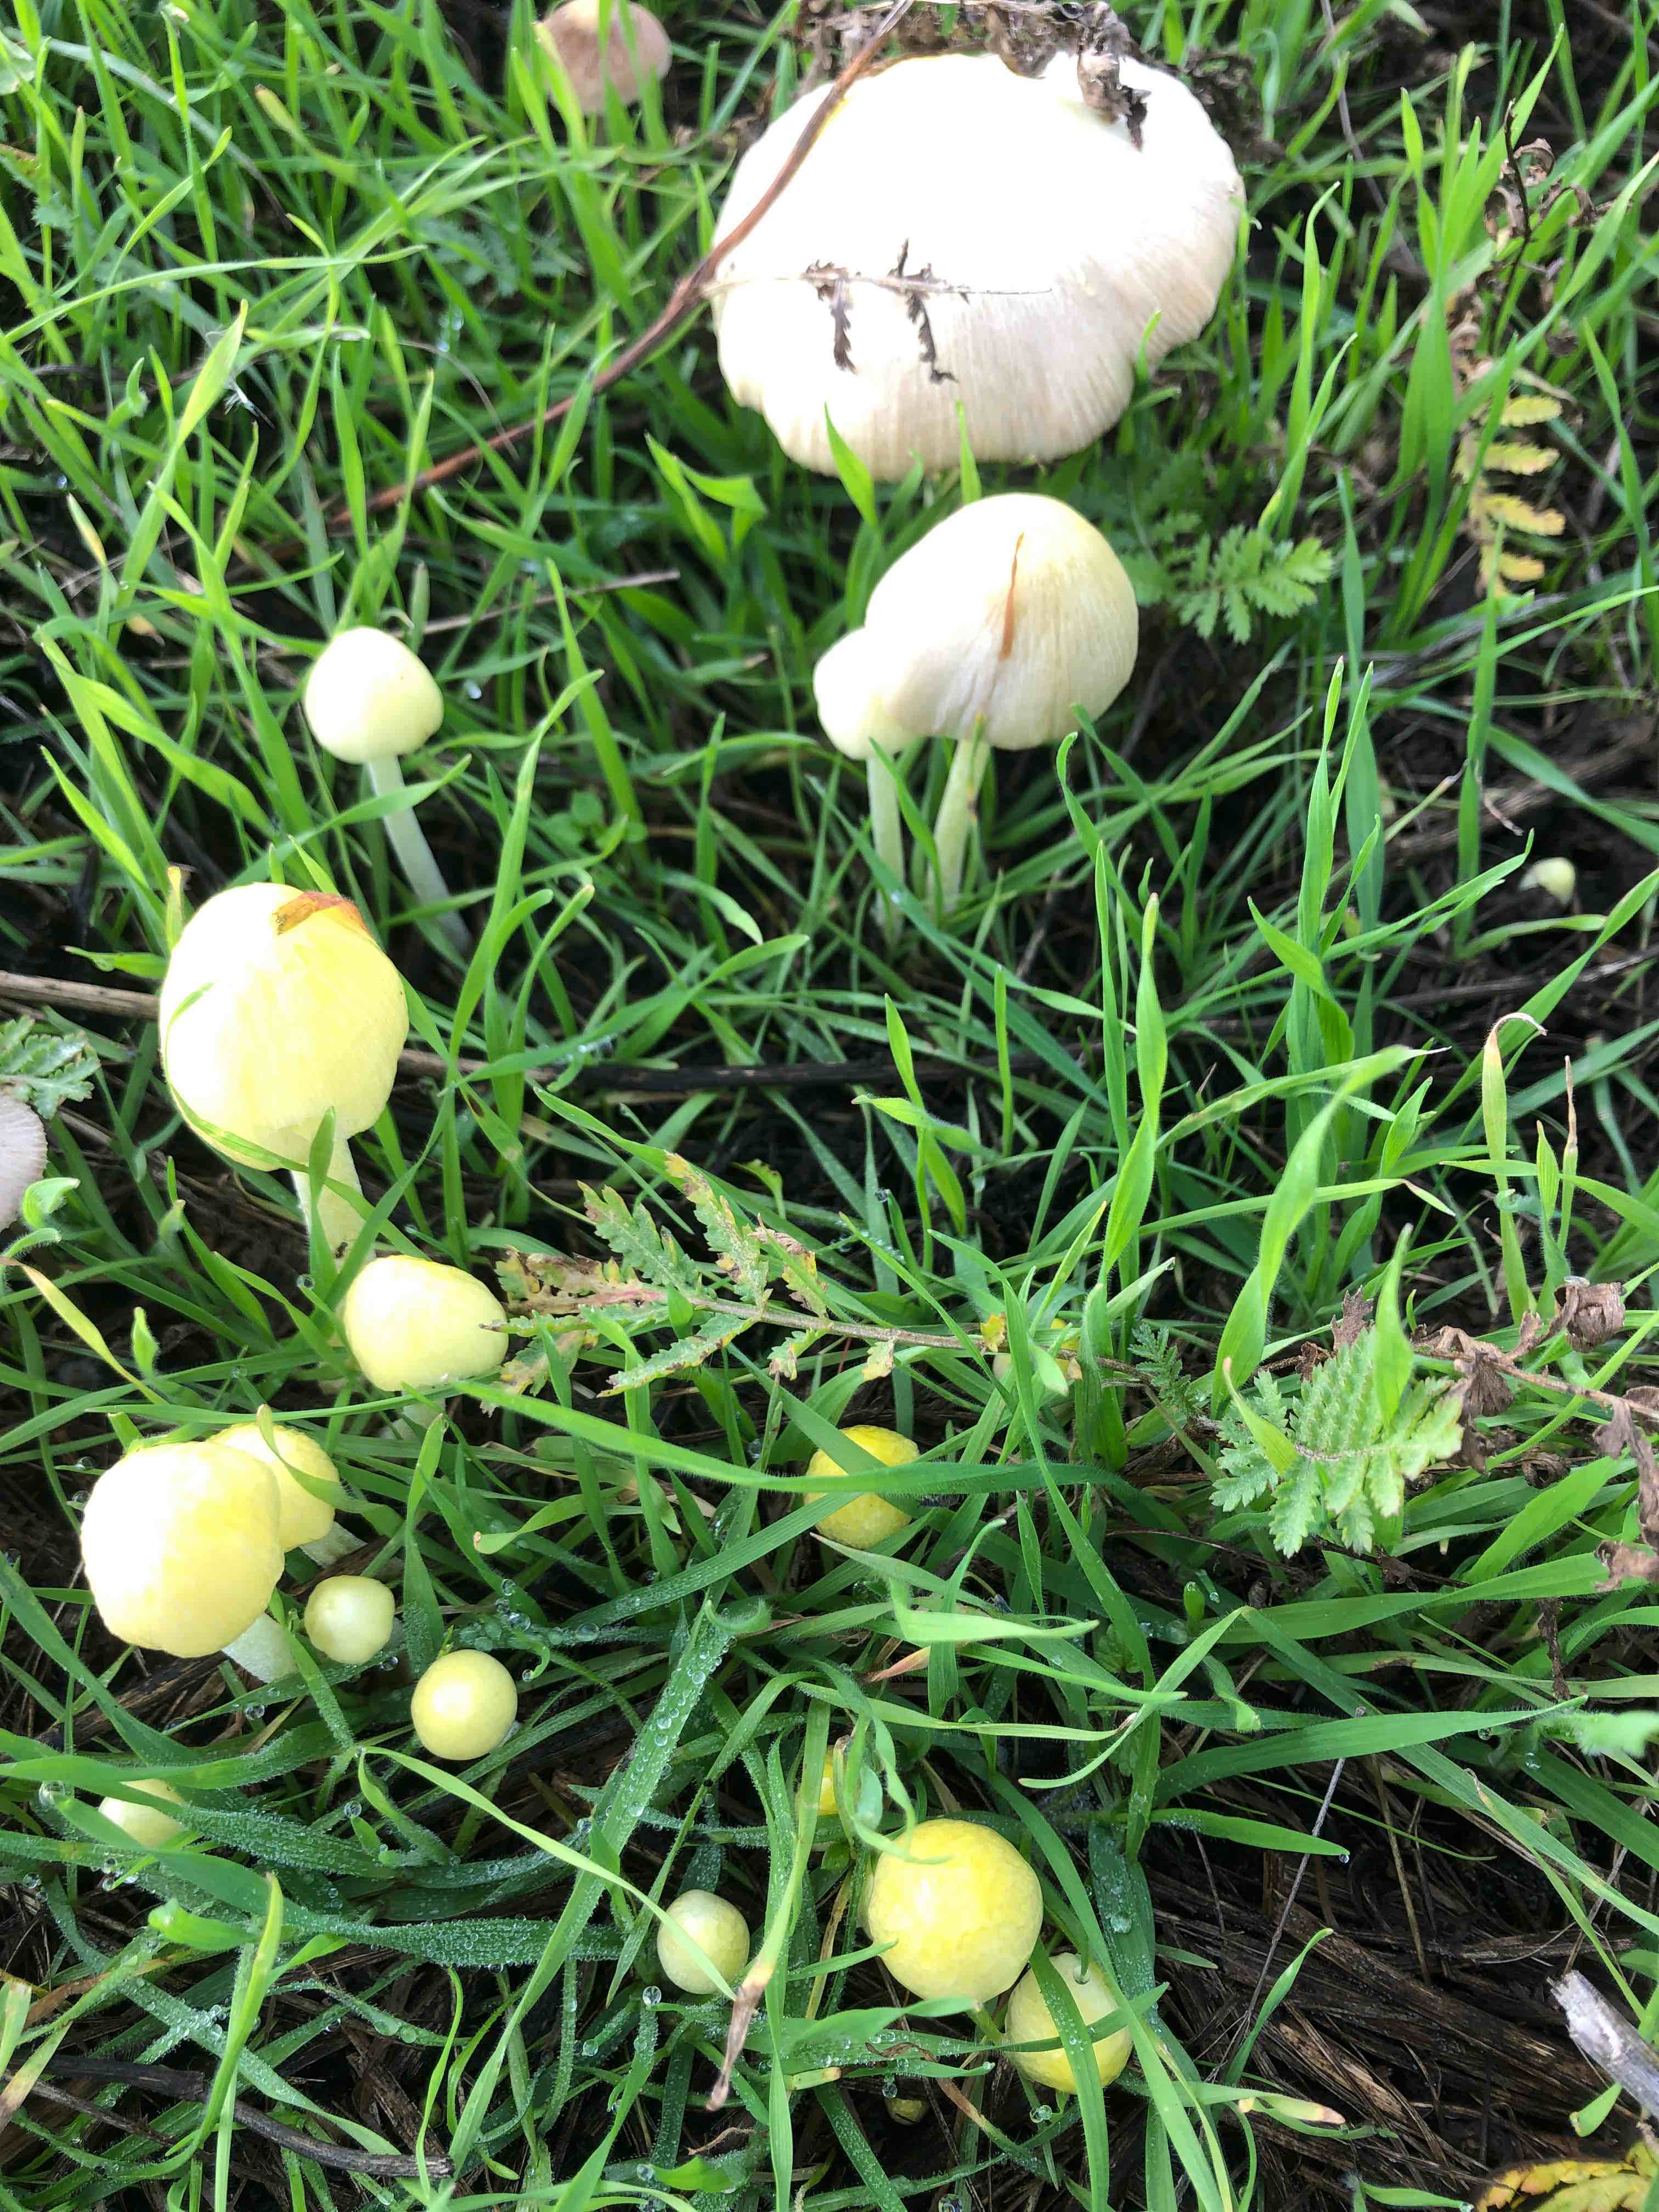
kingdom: Fungi
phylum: Basidiomycota
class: Agaricomycetes
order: Agaricales
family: Bolbitiaceae
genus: Bolbitius
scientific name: Bolbitius titubans
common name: almindelig gulhat
